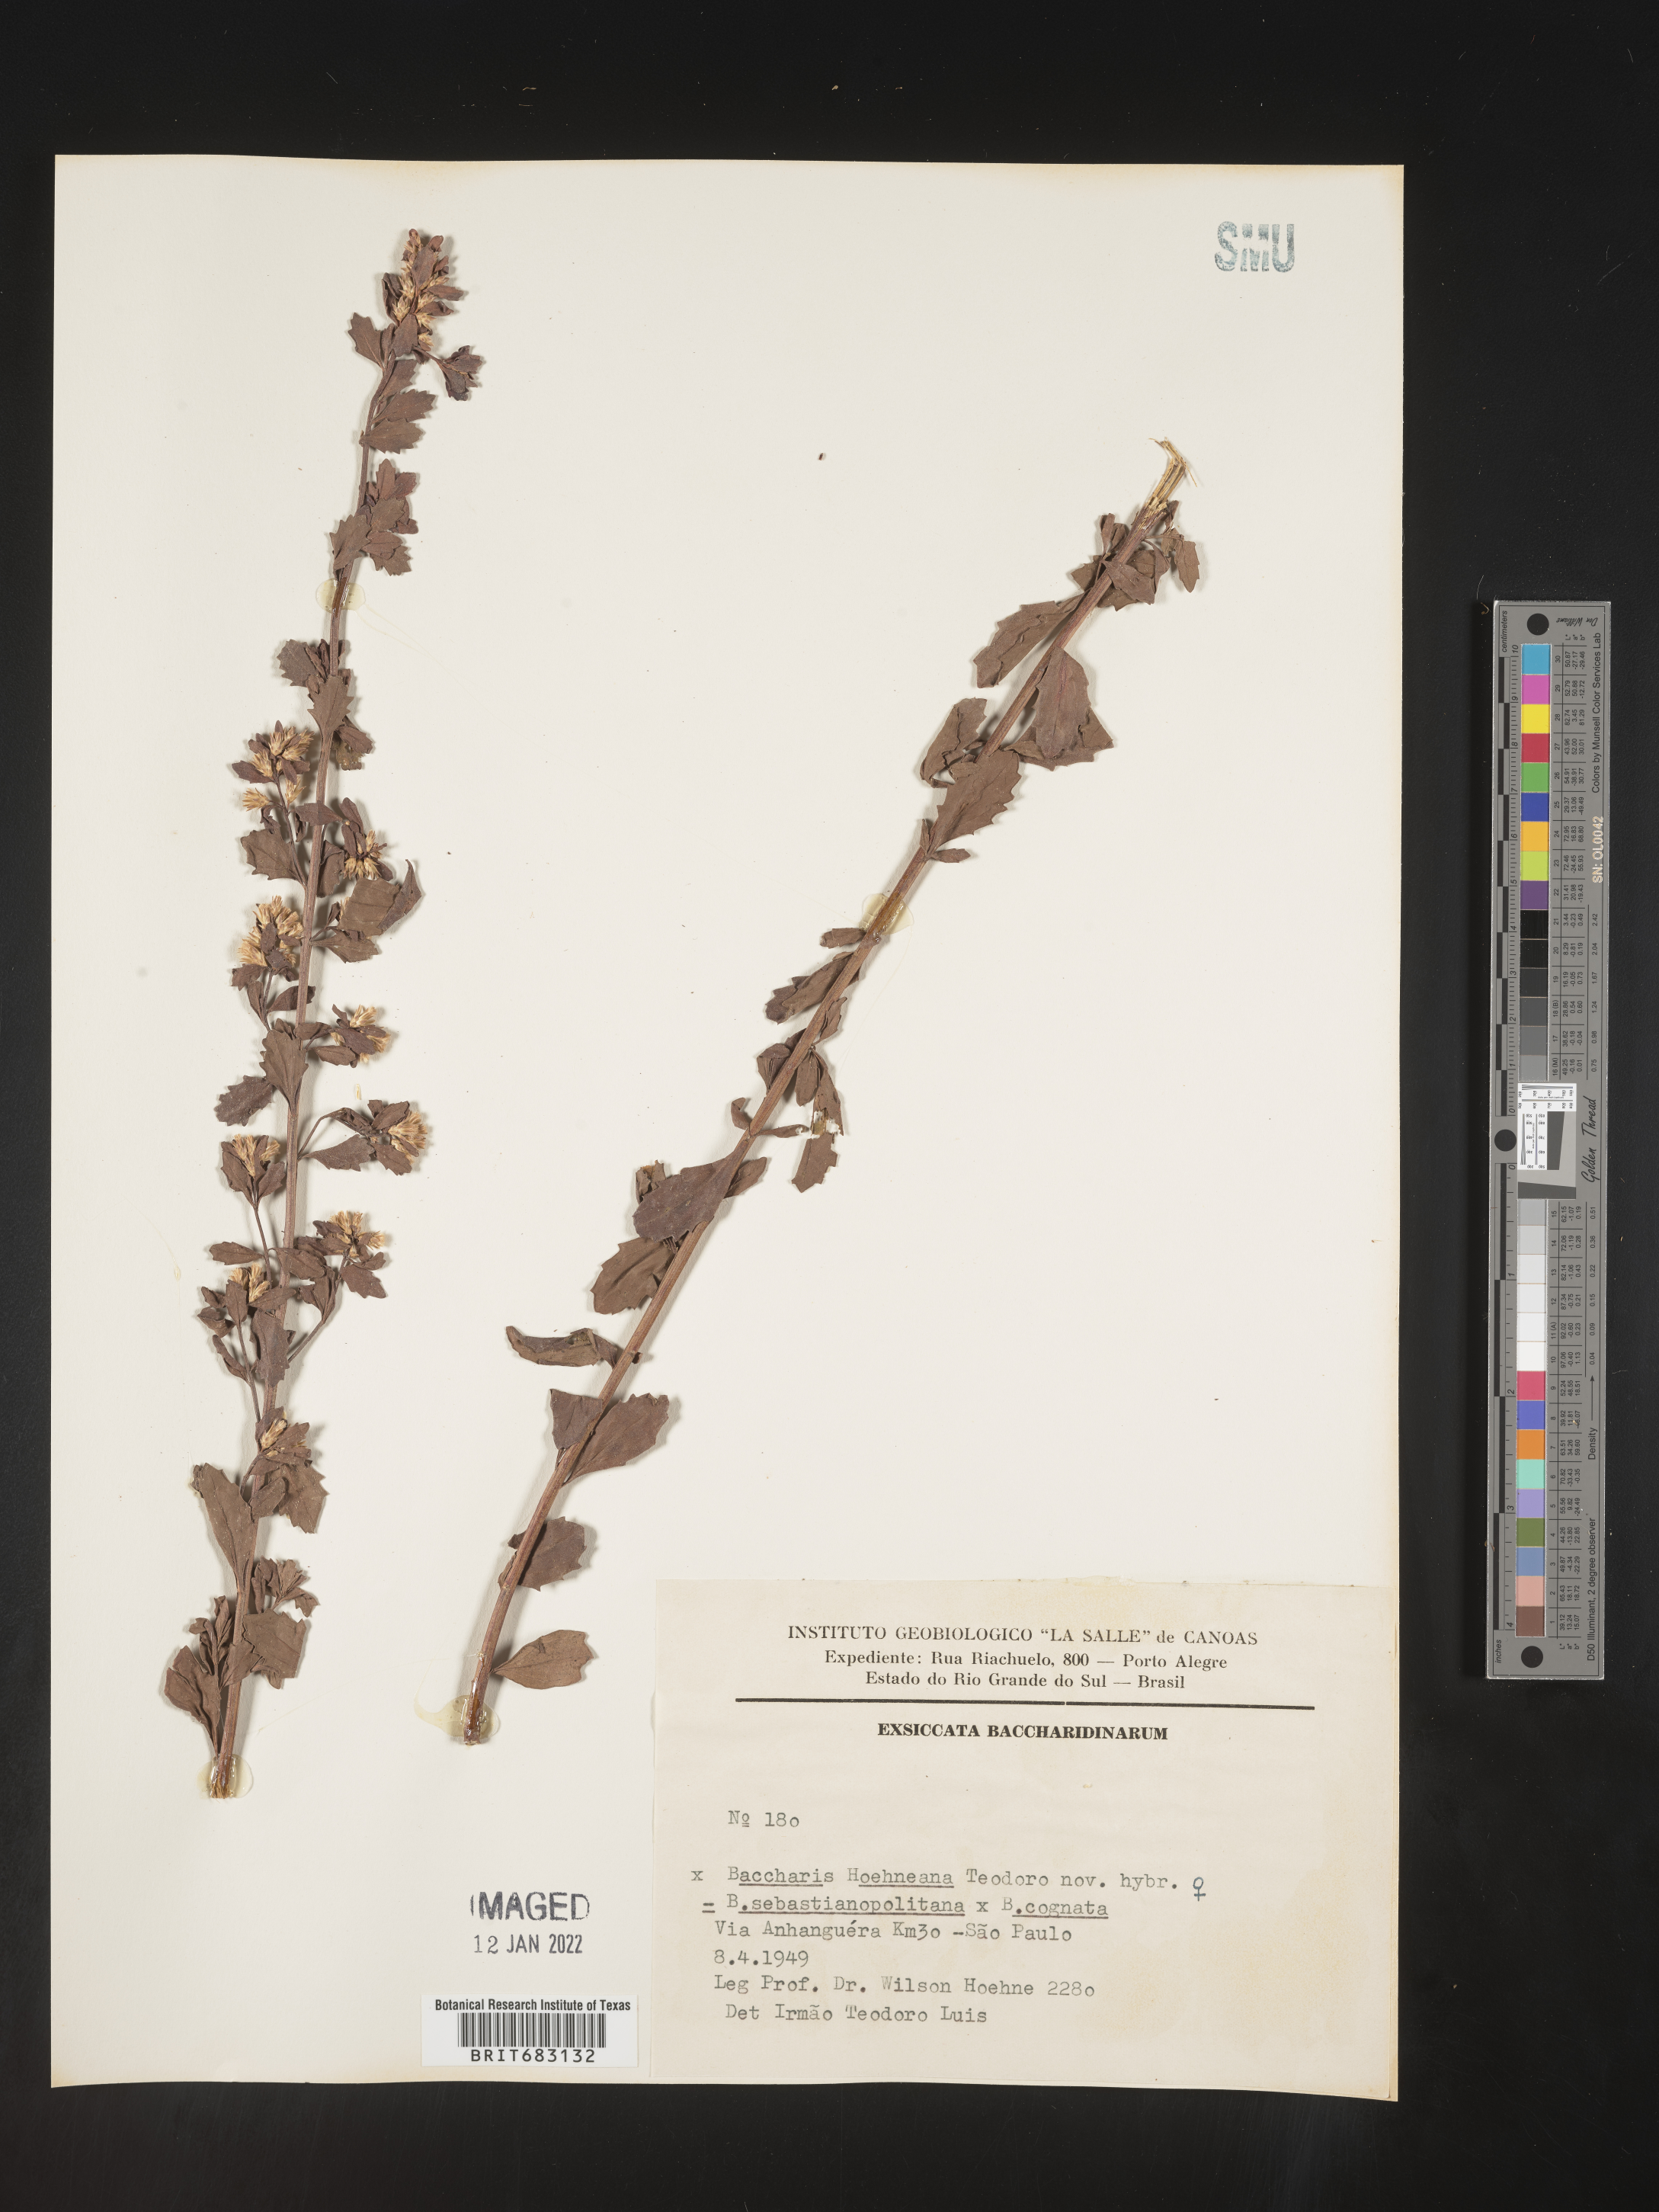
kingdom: Plantae
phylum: Tracheophyta
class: Magnoliopsida
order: Asterales
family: Asteraceae
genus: Baccharis
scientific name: Baccharis
